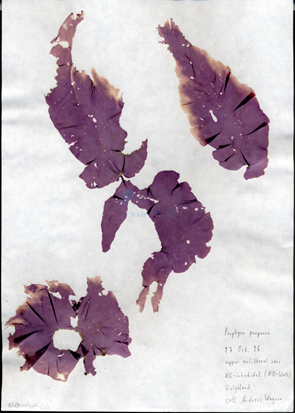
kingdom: Plantae
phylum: Rhodophyta
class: Bangiophyceae
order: Bangiales
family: Bangiaceae
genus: Porphyra
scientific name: Porphyra purpurea
